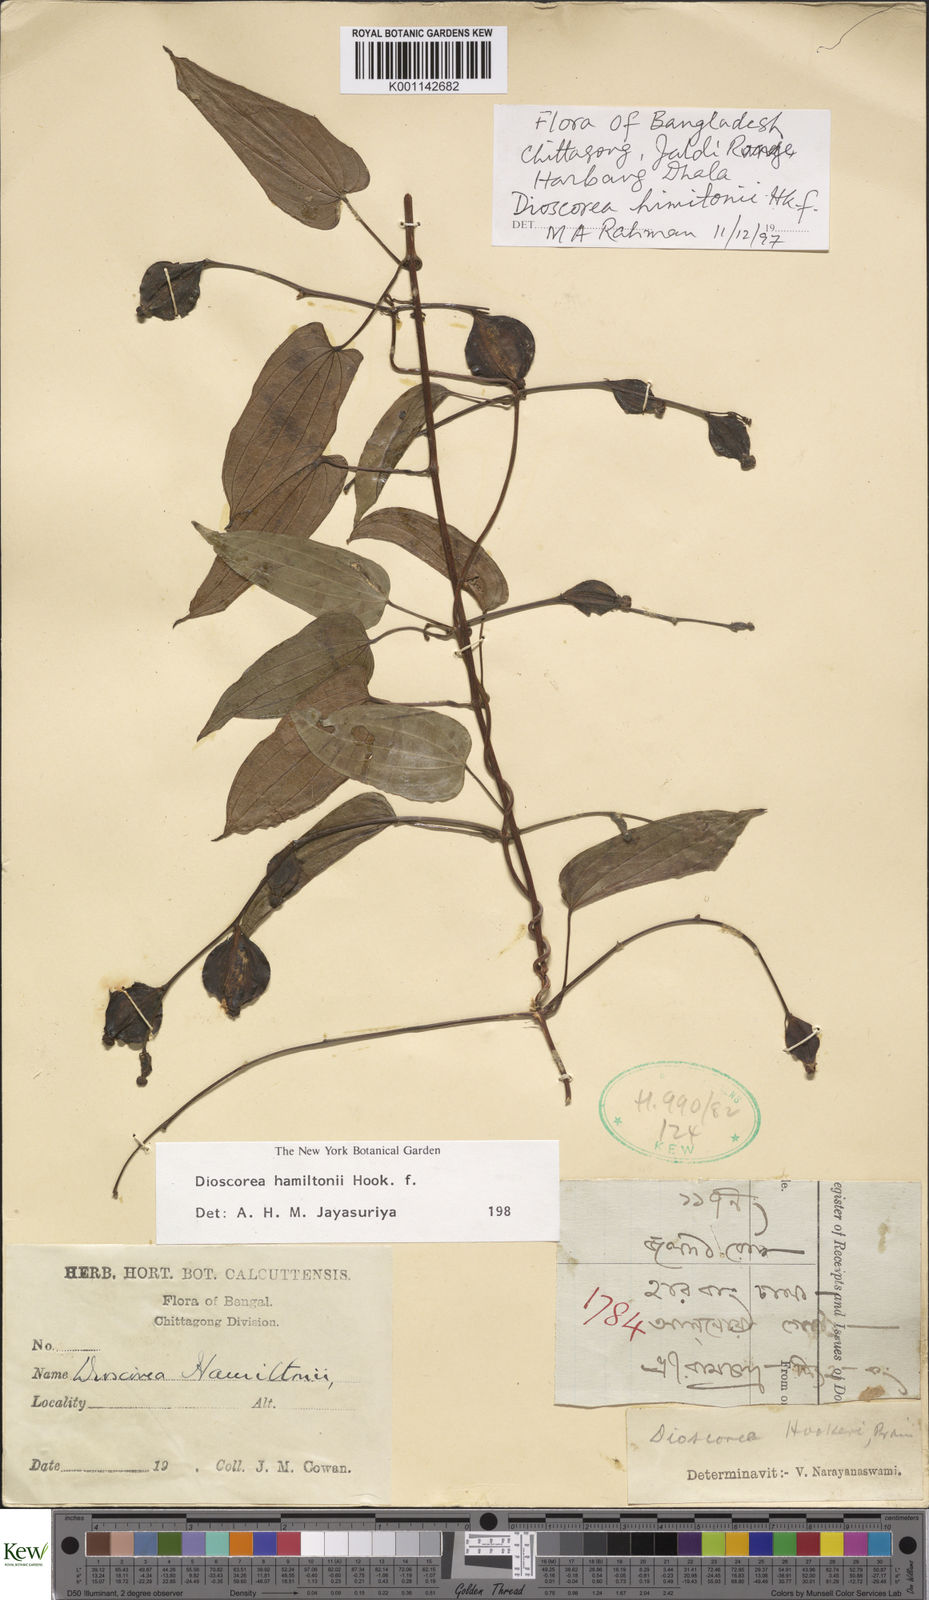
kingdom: Plantae
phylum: Tracheophyta
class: Liliopsida
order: Dioscoreales
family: Dioscoreaceae
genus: Dioscorea
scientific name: Dioscorea hamiltonii
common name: Mountain yam
